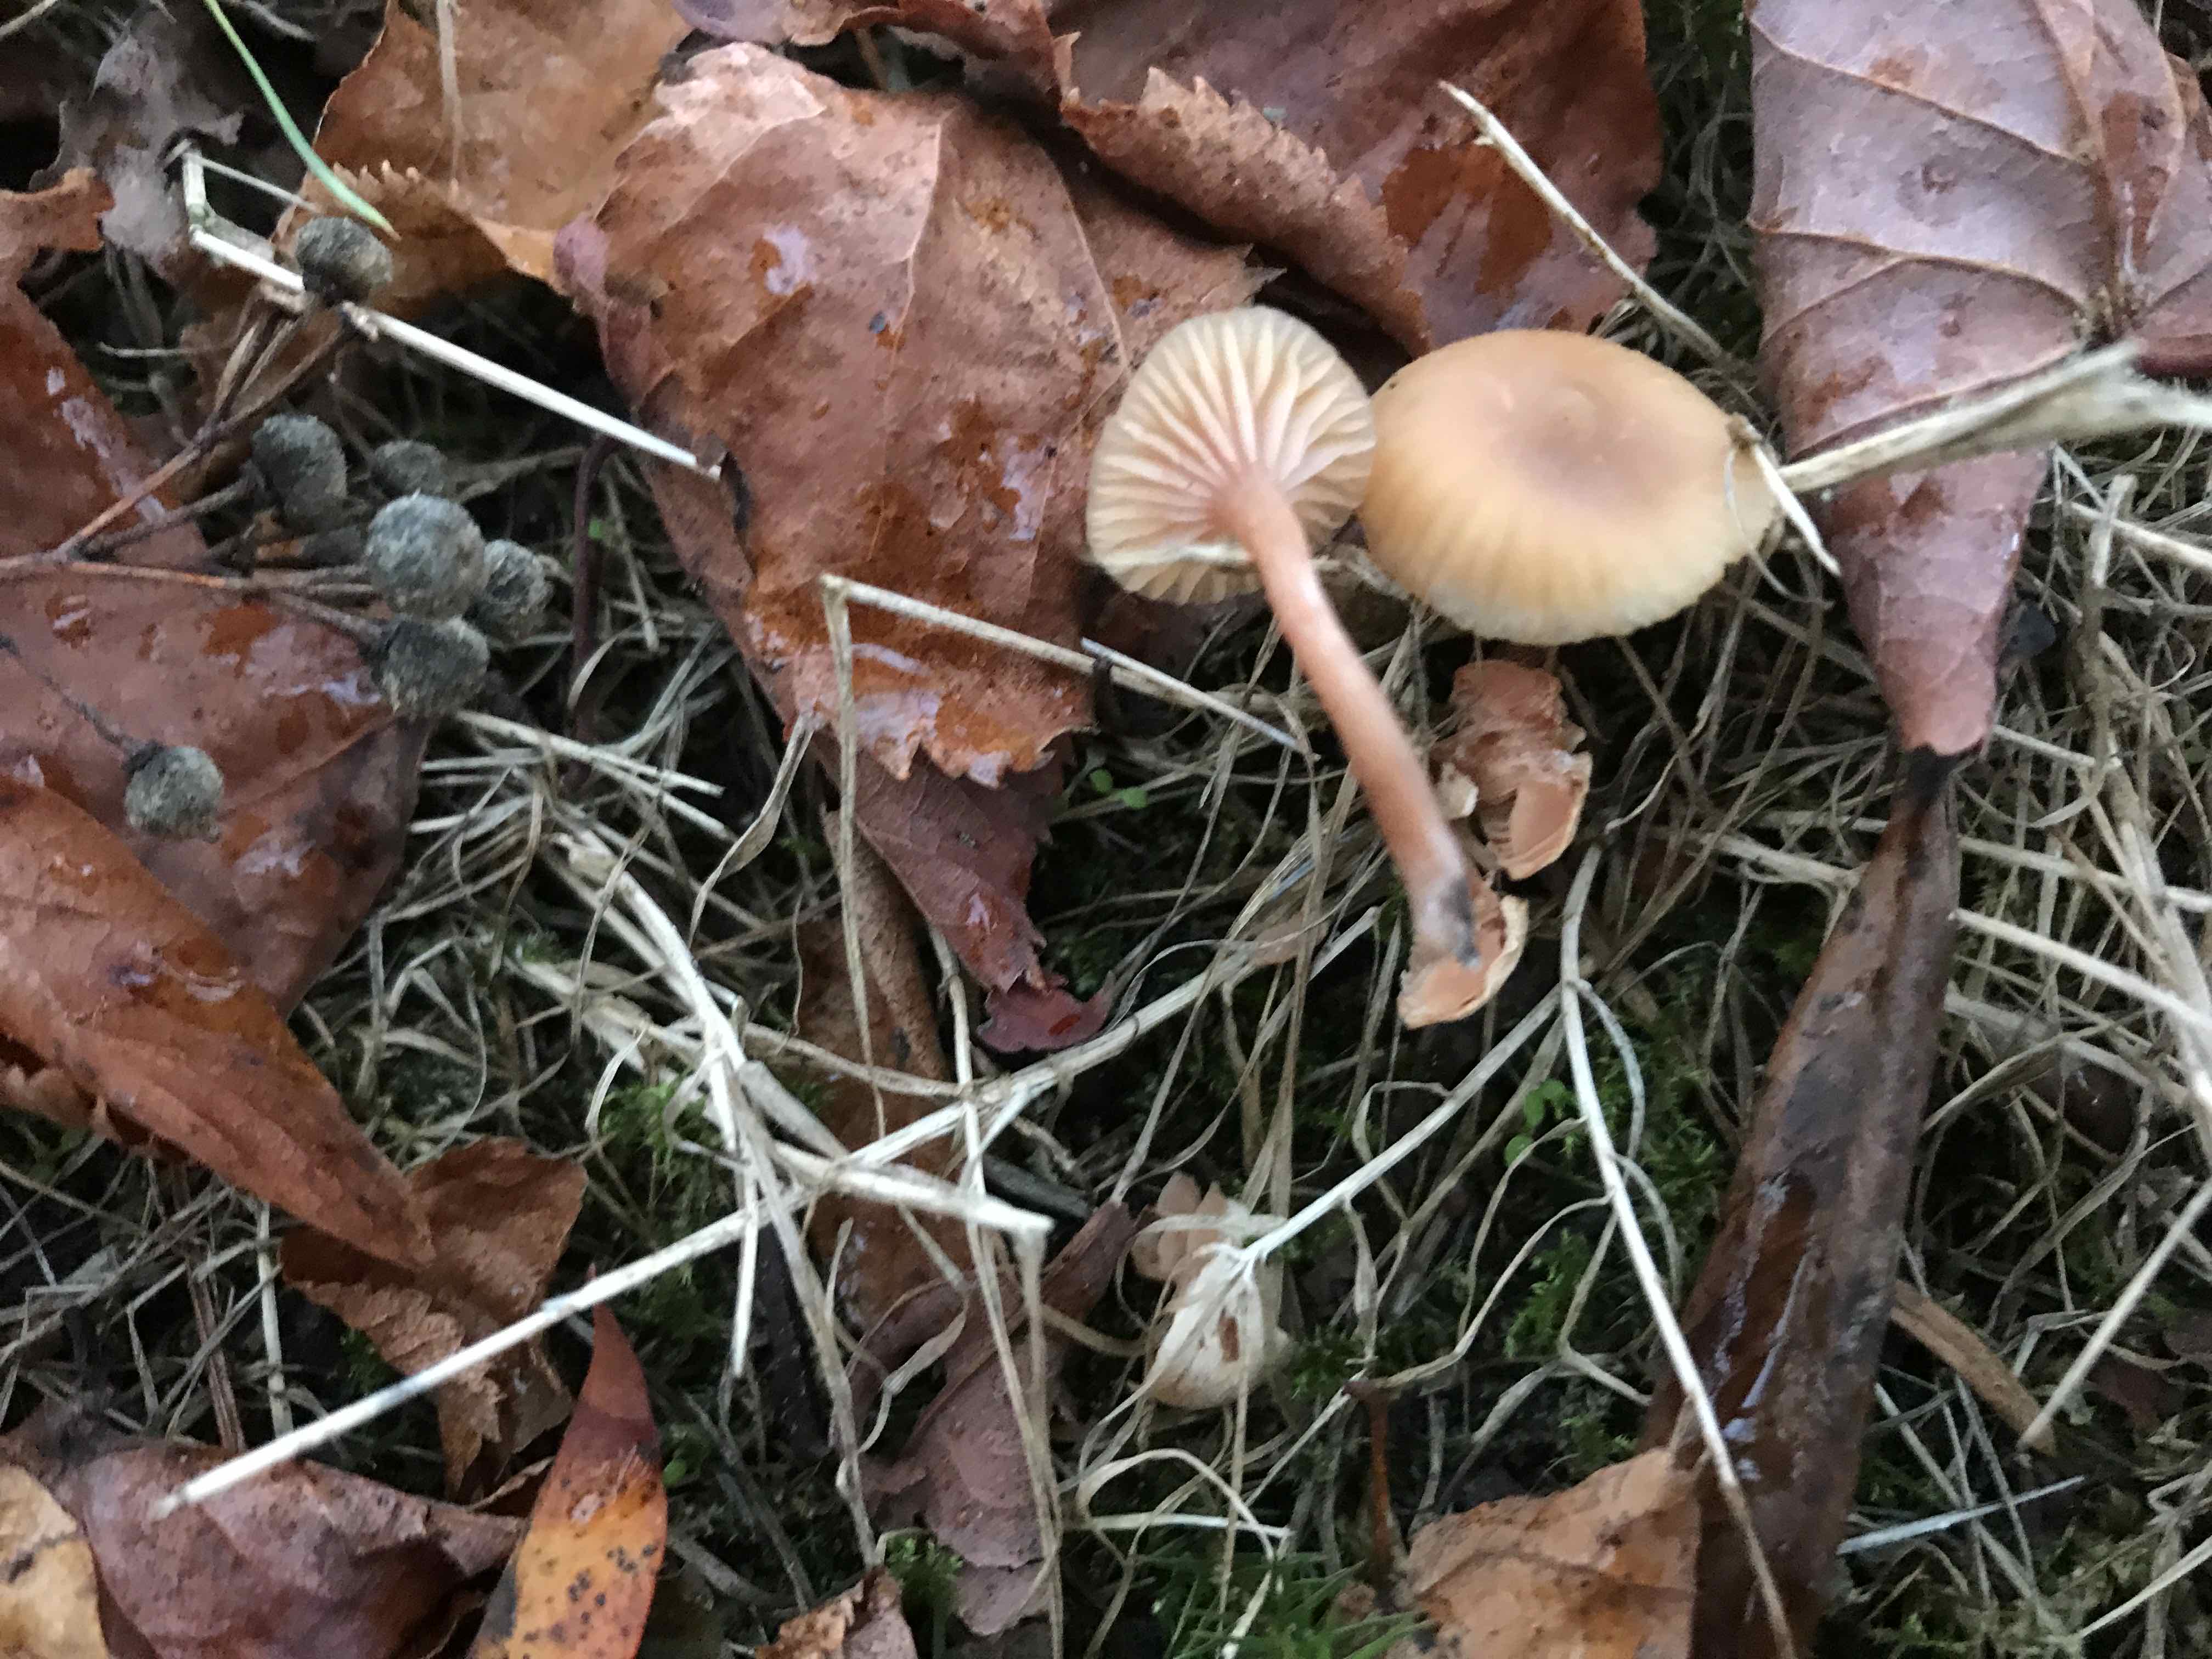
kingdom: Fungi
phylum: Basidiomycota
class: Agaricomycetes
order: Agaricales
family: Hydnangiaceae
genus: Laccaria
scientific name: Laccaria laccata
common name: rød ametysthat
